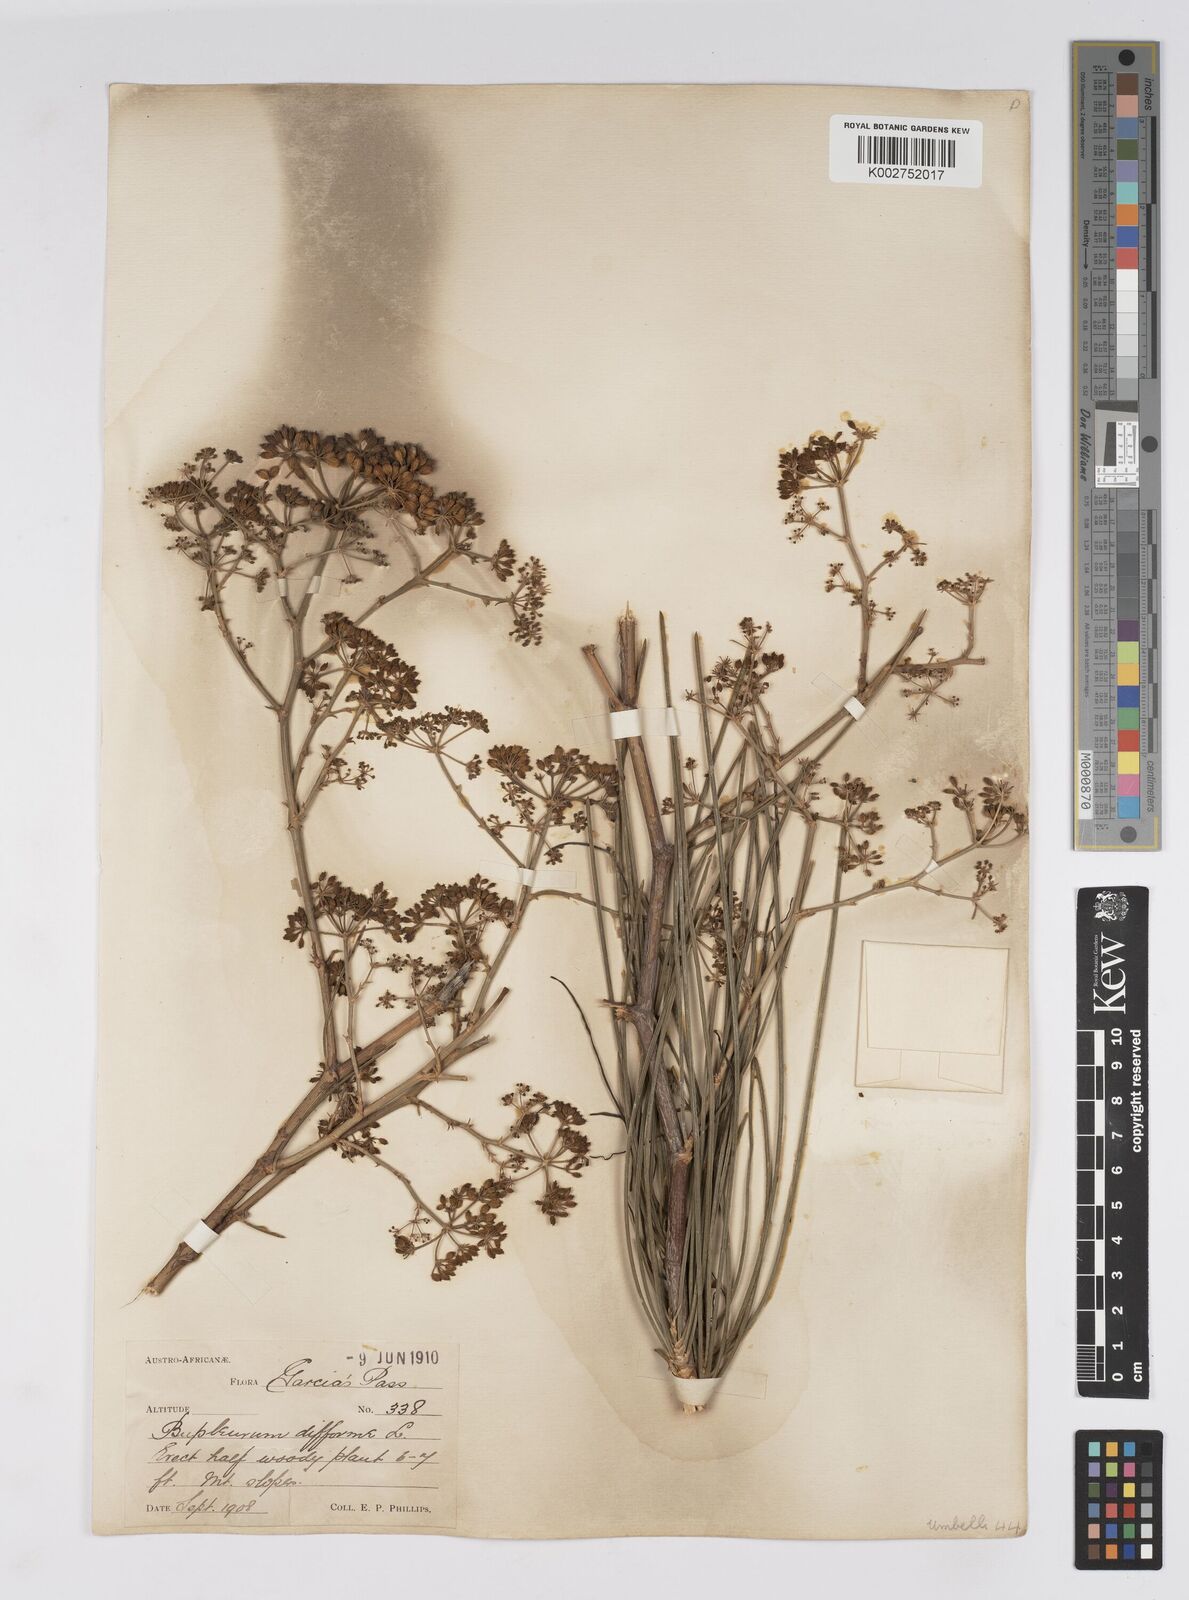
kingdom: Plantae
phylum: Tracheophyta
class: Magnoliopsida
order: Apiales
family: Apiaceae
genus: Anginon
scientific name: Anginon difforme
